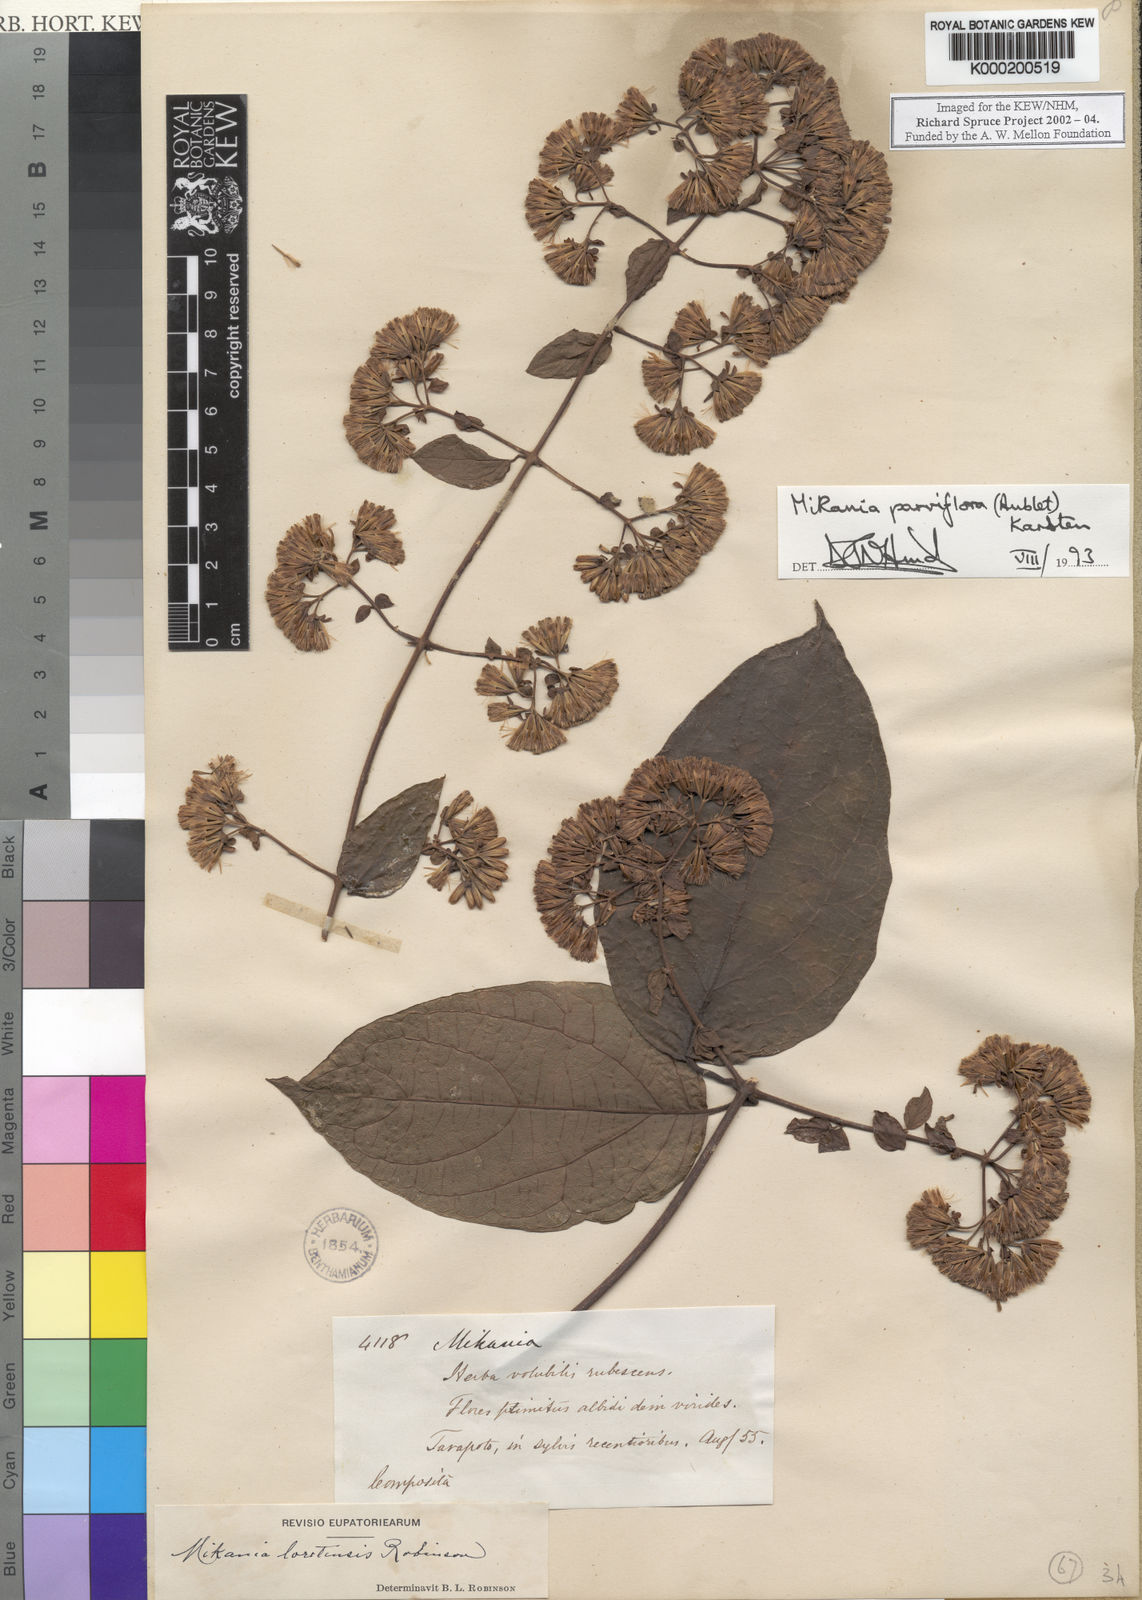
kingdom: Plantae
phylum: Tracheophyta
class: Magnoliopsida
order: Asterales
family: Asteraceae
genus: Mikania
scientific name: Mikania parviflora
